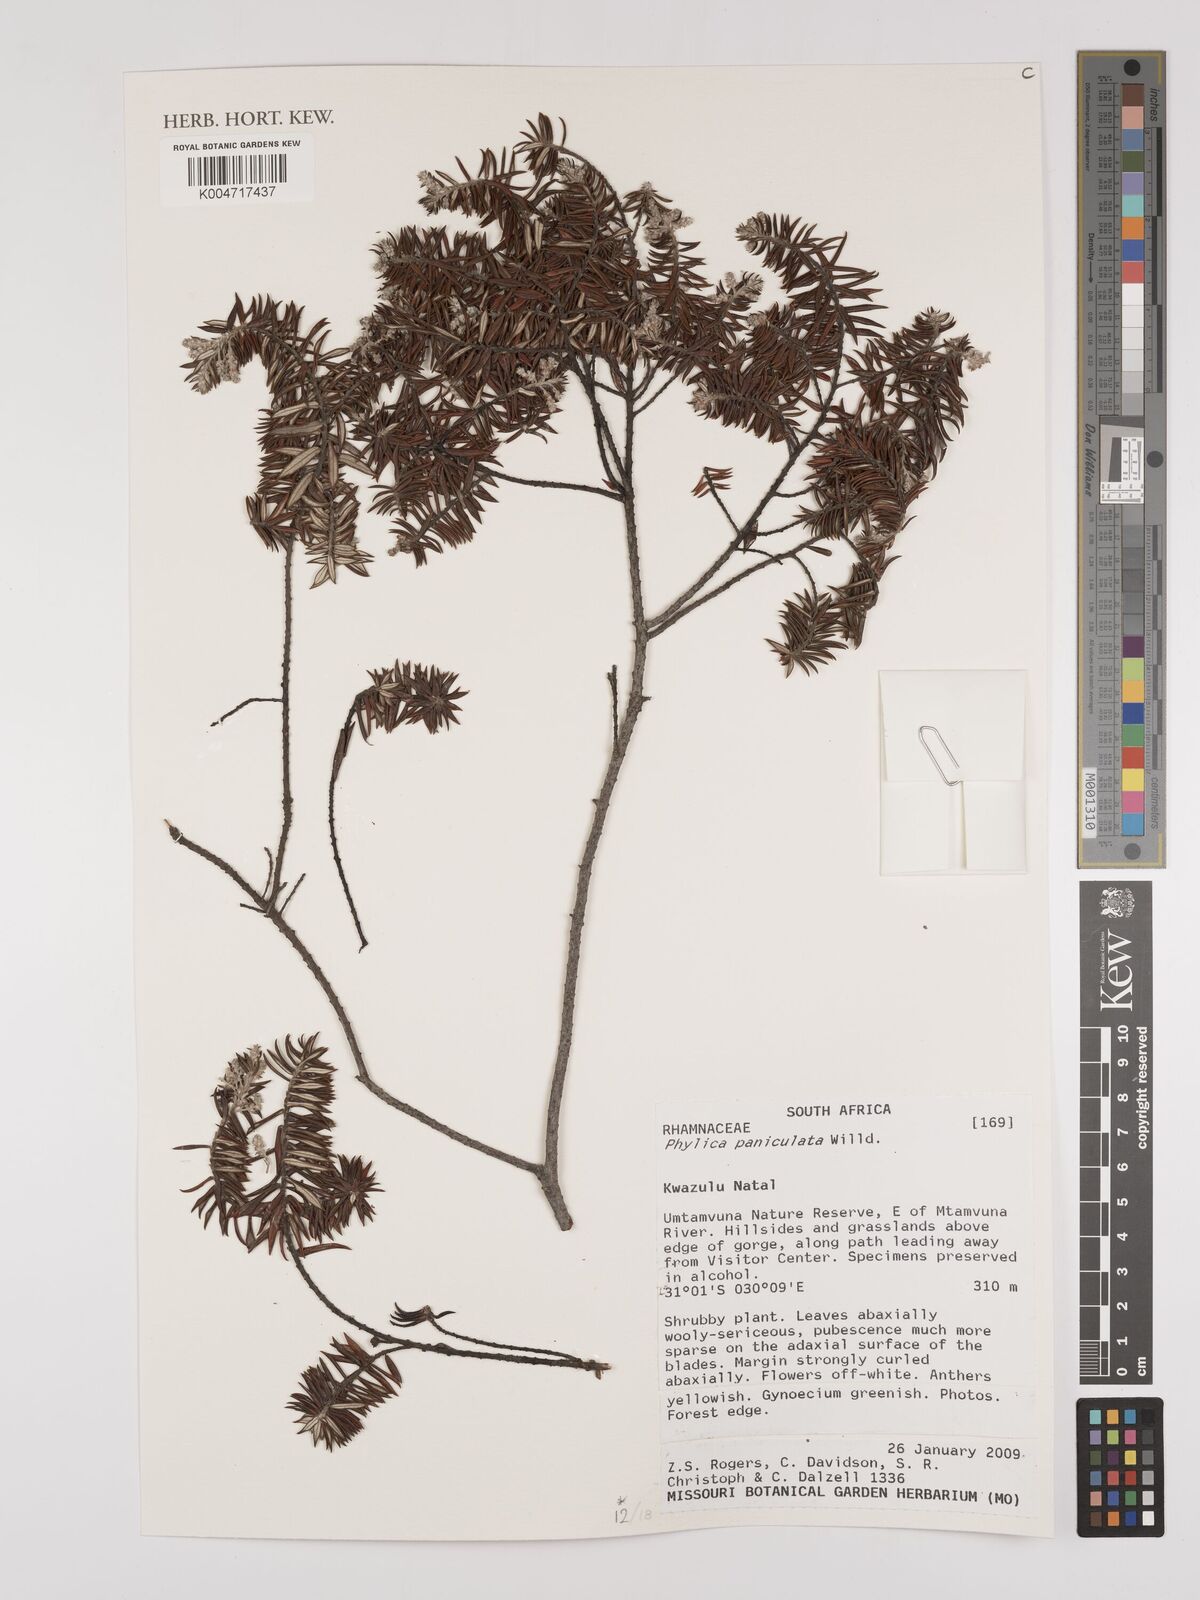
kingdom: Plantae
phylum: Tracheophyta
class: Magnoliopsida
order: Rosales
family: Rhamnaceae
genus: Phylica
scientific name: Phylica paniculata
